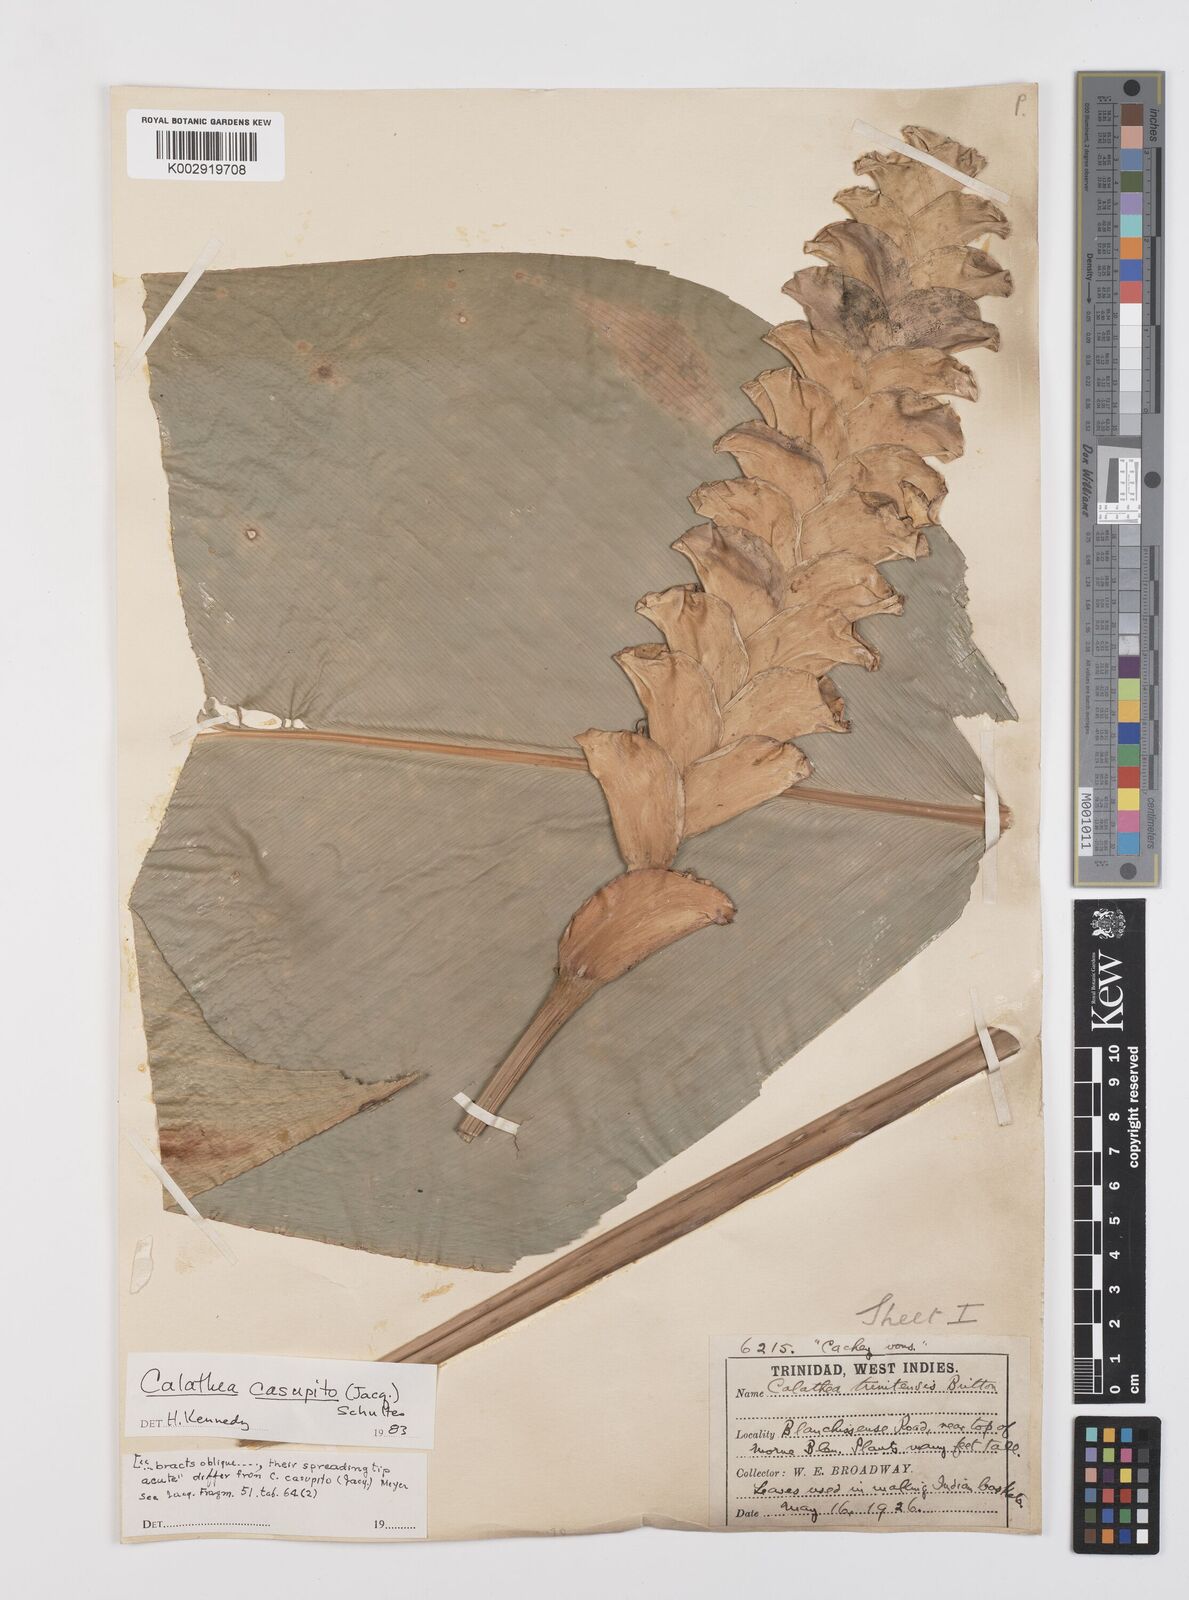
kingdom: Plantae
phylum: Tracheophyta
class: Liliopsida
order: Zingiberales
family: Marantaceae
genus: Calathea
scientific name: Calathea casupito
